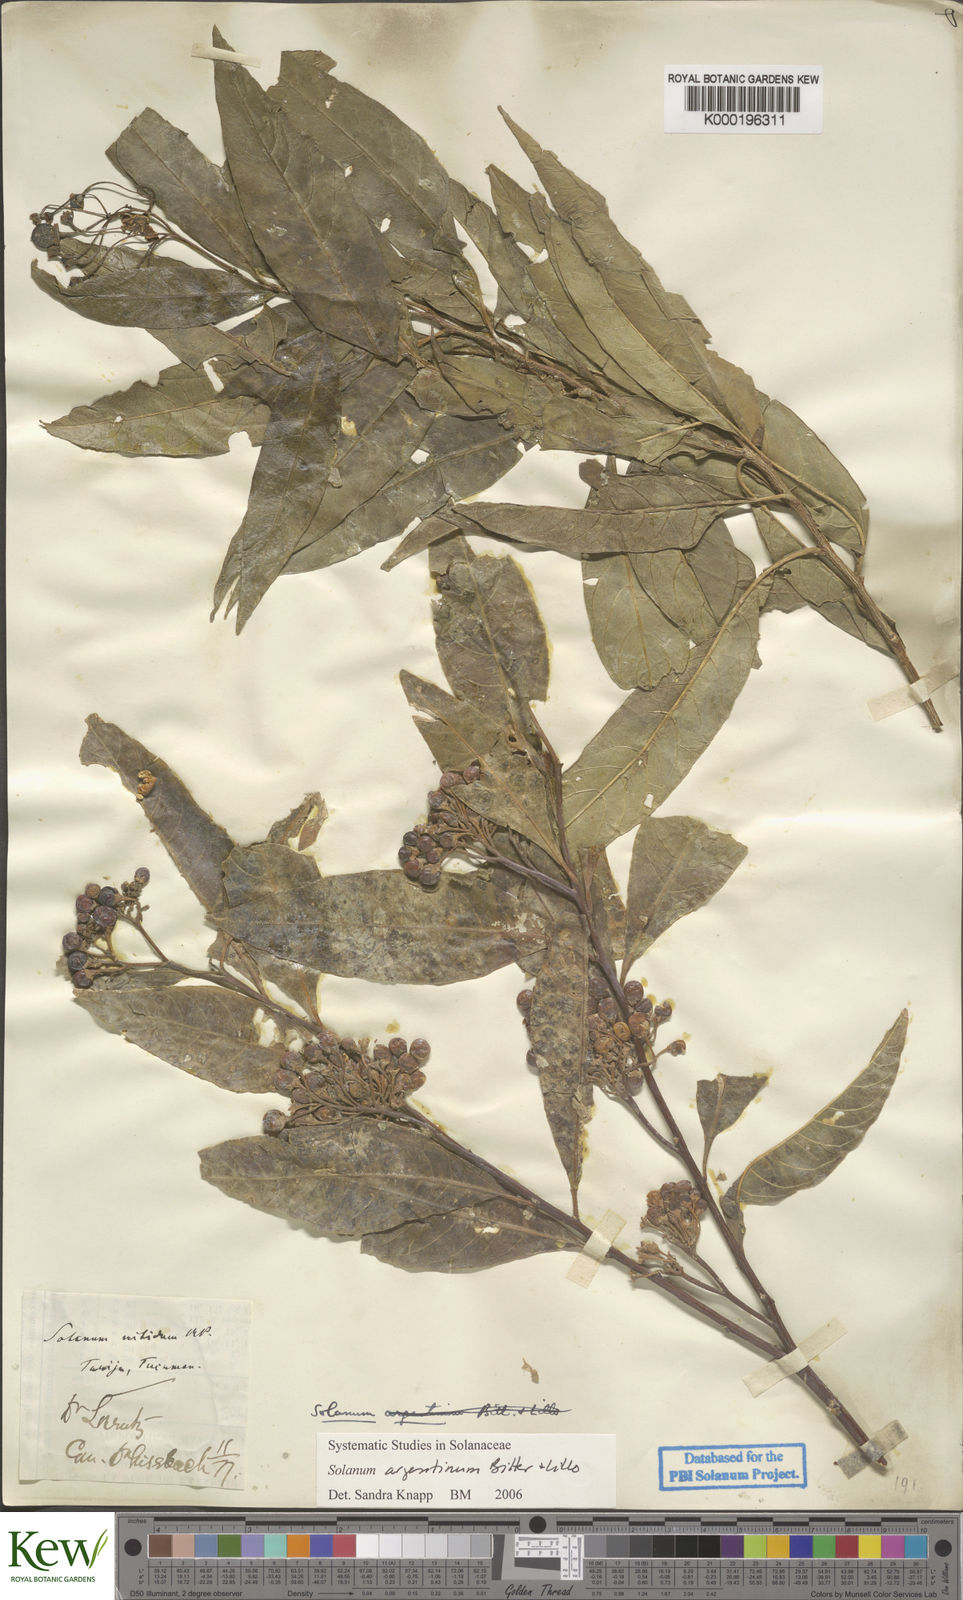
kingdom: Plantae
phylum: Tracheophyta
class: Magnoliopsida
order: Solanales
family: Solanaceae
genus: Solanum
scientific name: Solanum argentinum
